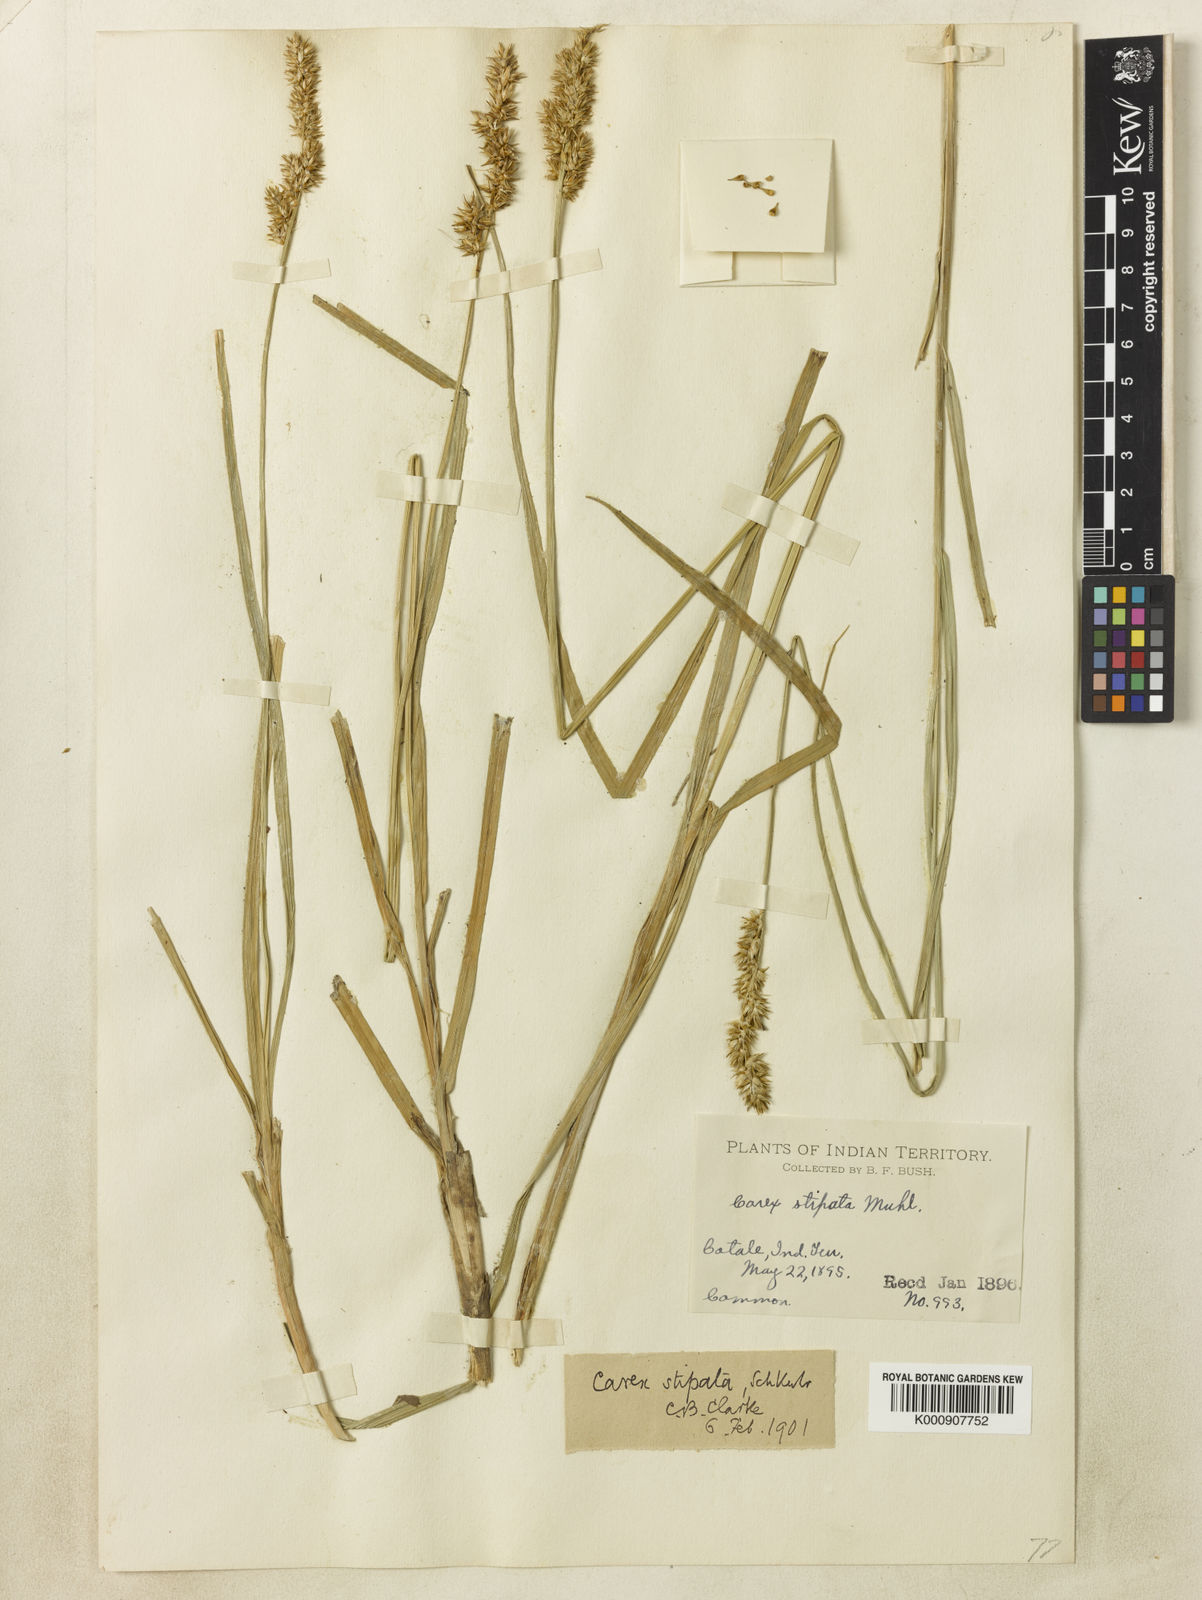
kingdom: Plantae
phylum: Tracheophyta
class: Liliopsida
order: Poales
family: Cyperaceae
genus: Carex
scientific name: Carex neurophora
